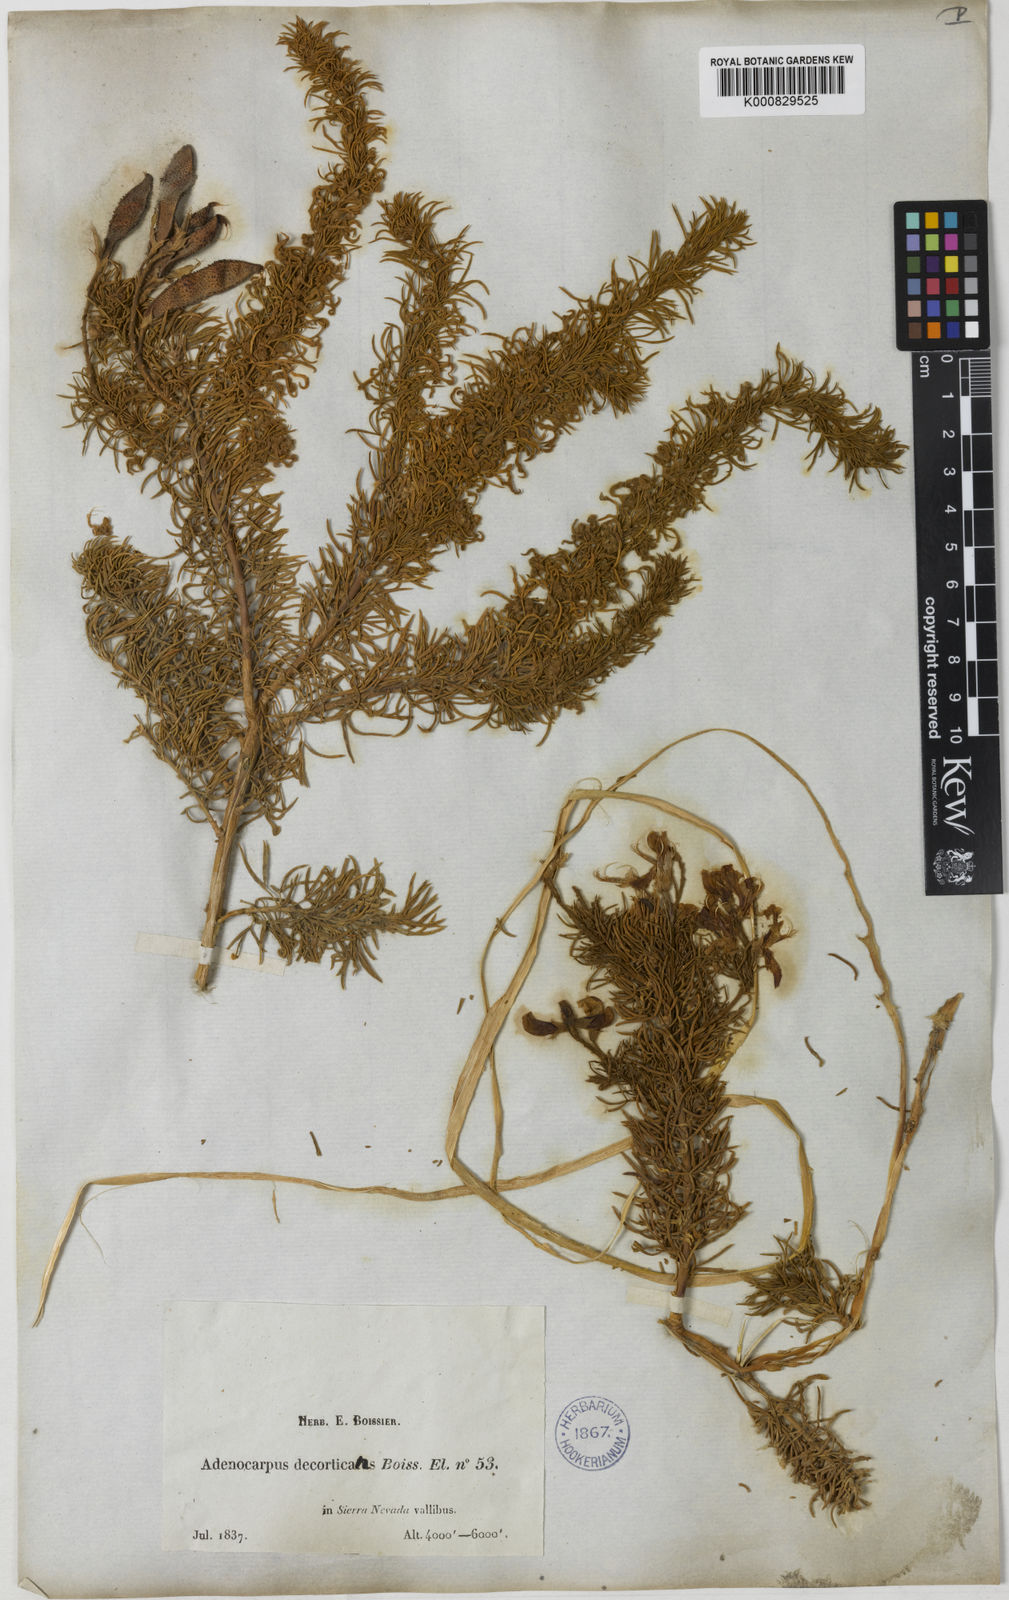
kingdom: Plantae
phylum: Tracheophyta
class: Magnoliopsida
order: Fabales
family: Fabaceae
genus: Adenocarpus
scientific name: Adenocarpus decorticans
